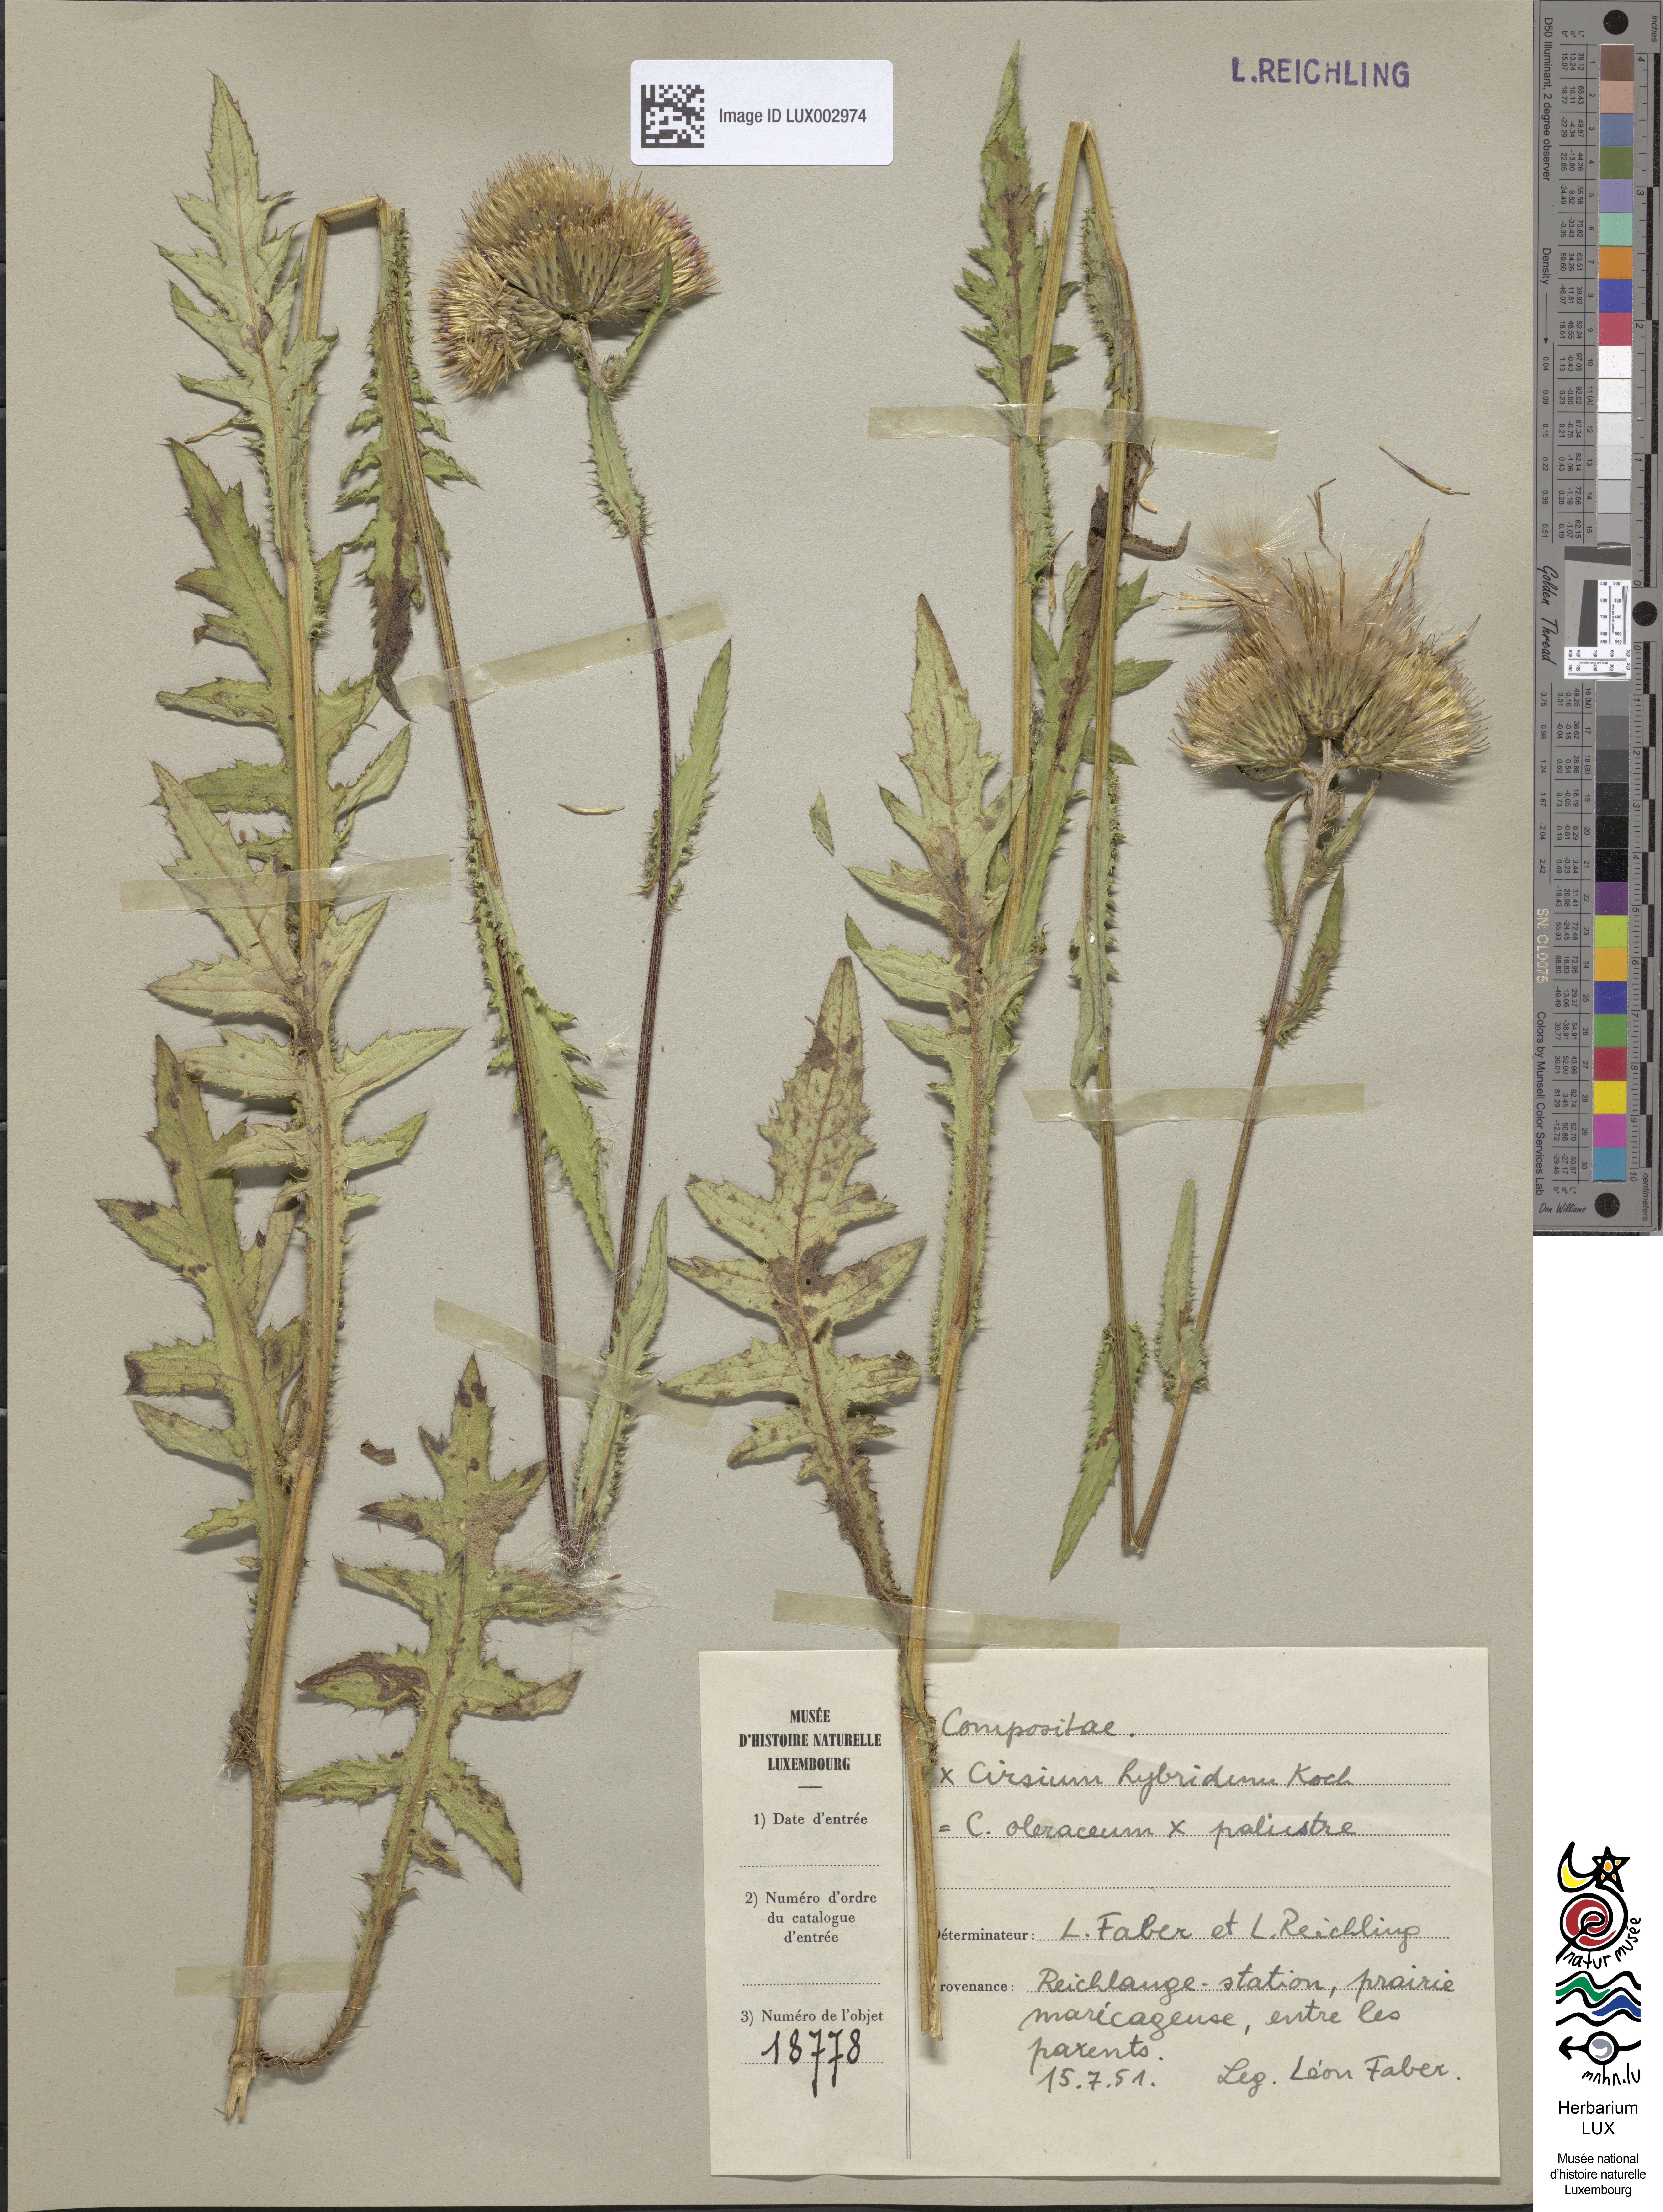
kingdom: Plantae
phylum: Tracheophyta
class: Magnoliopsida
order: Asterales
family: Asteraceae
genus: Cirsium
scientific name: Cirsium hybridum
